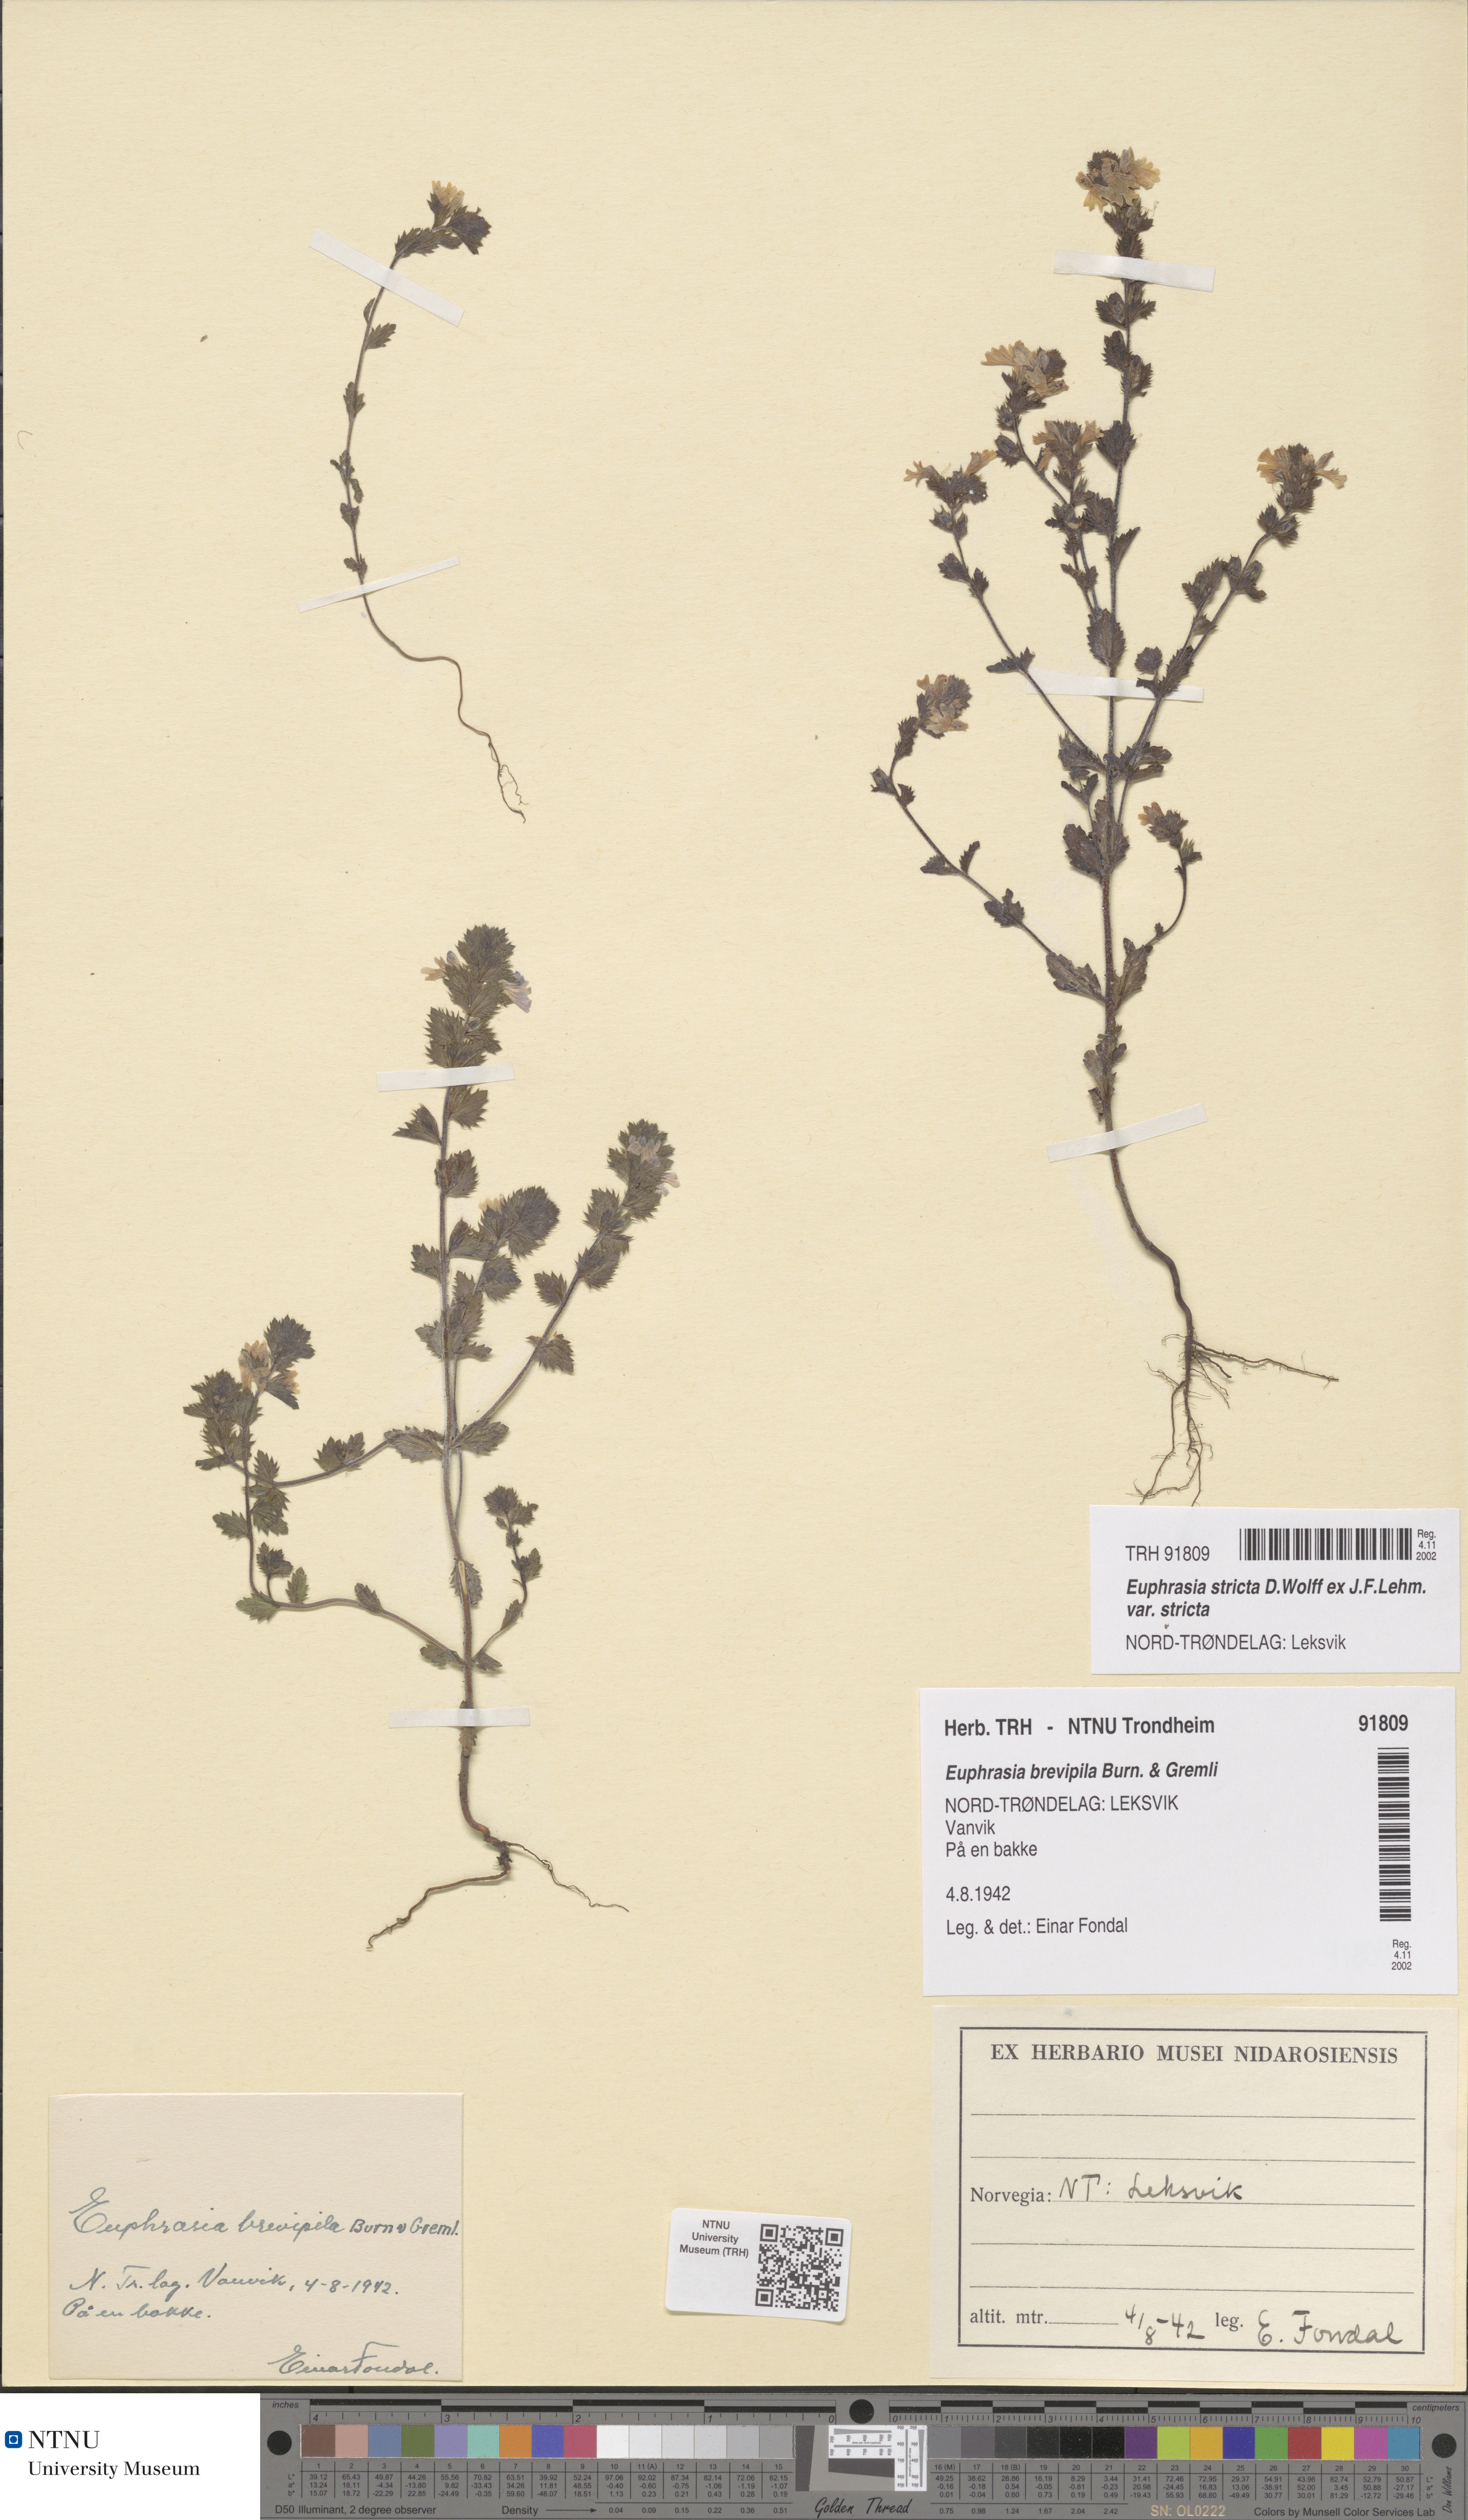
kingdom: Plantae
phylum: Tracheophyta
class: Magnoliopsida
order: Lamiales
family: Orobanchaceae
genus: Euphrasia
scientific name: Euphrasia vernalis
